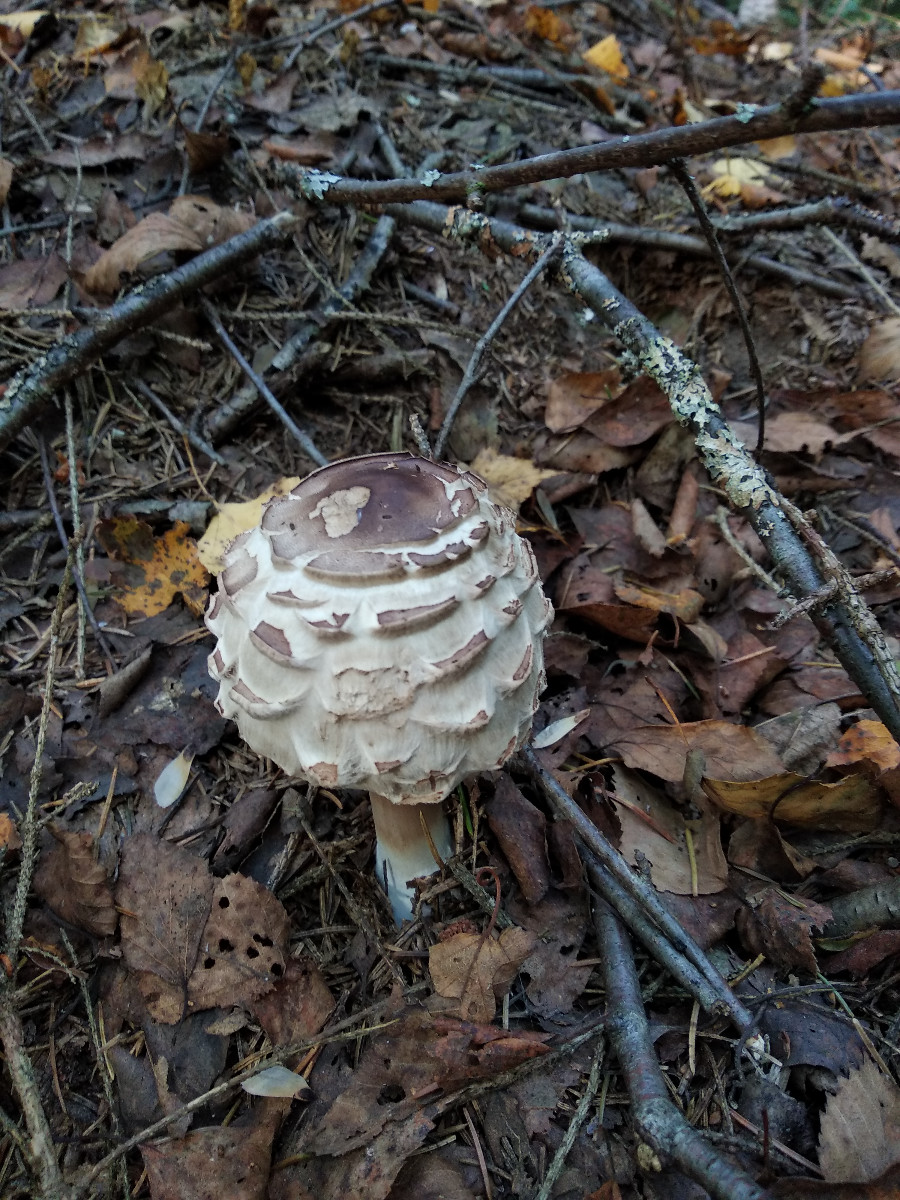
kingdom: Fungi
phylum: Basidiomycota
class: Agaricomycetes
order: Agaricales
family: Agaricaceae
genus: Chlorophyllum
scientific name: Chlorophyllum
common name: rabarberhat
